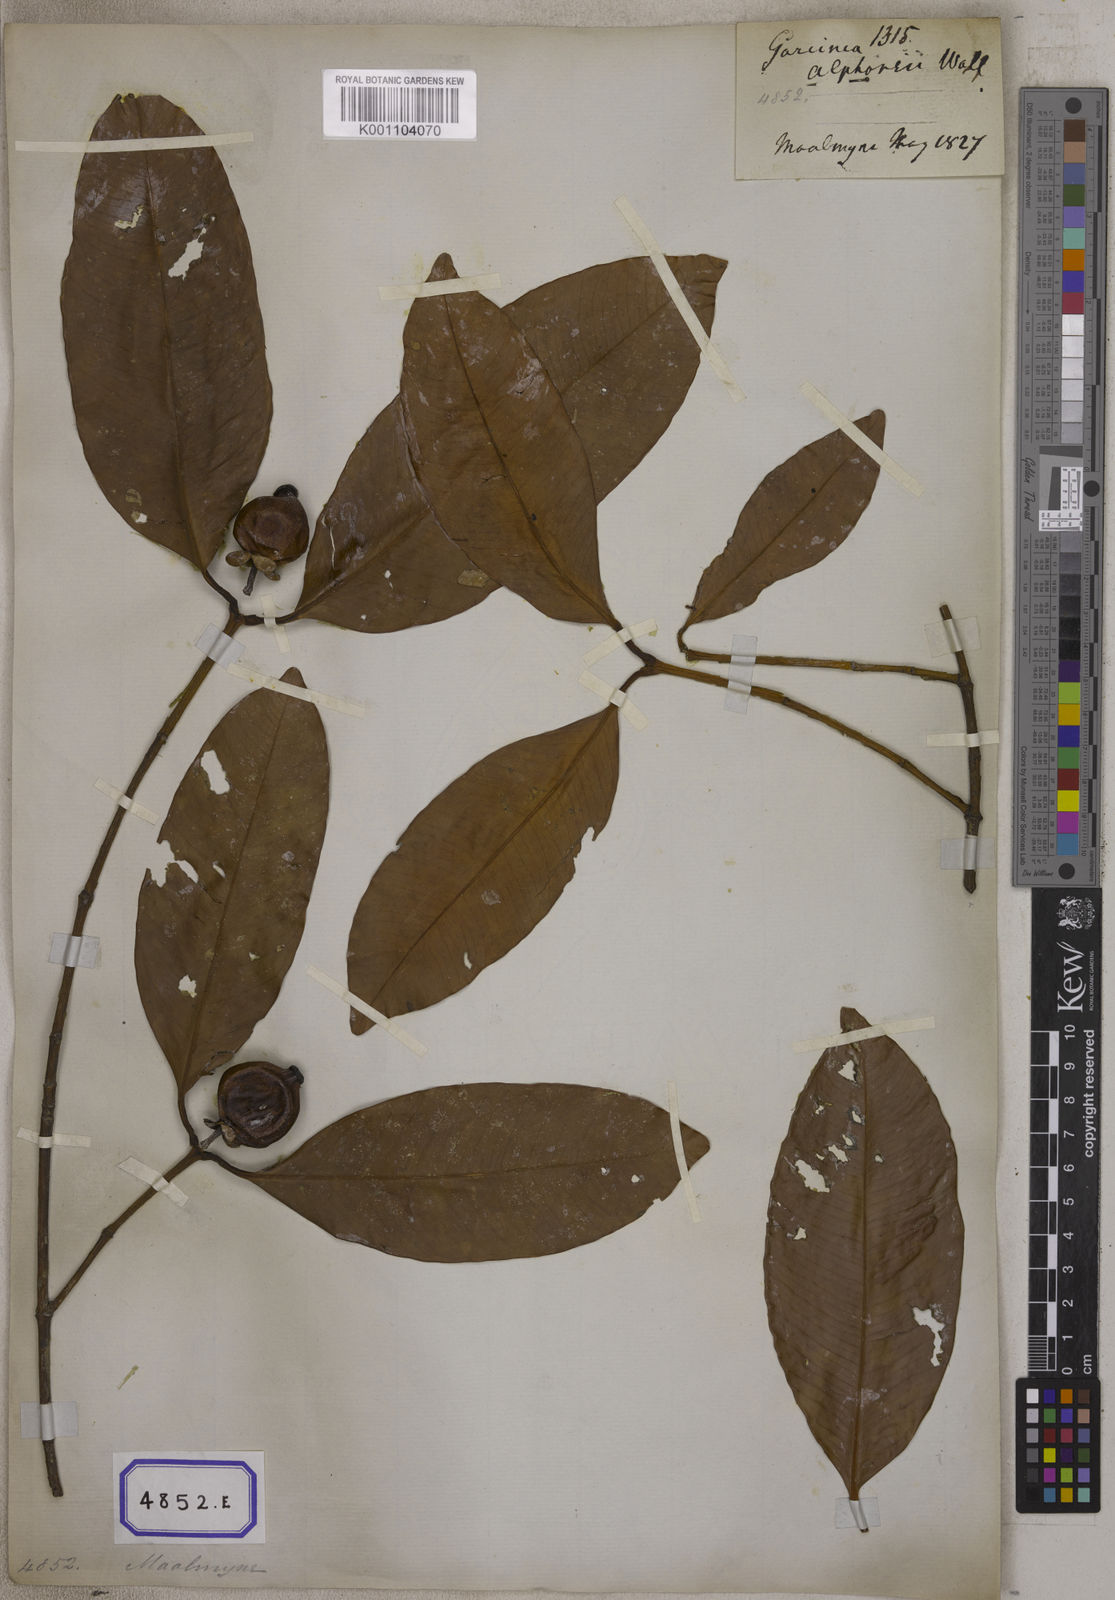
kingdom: Plantae
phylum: Tracheophyta
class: Magnoliopsida
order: Malpighiales
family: Clusiaceae
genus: Garcinia
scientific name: Garcinia celebica
